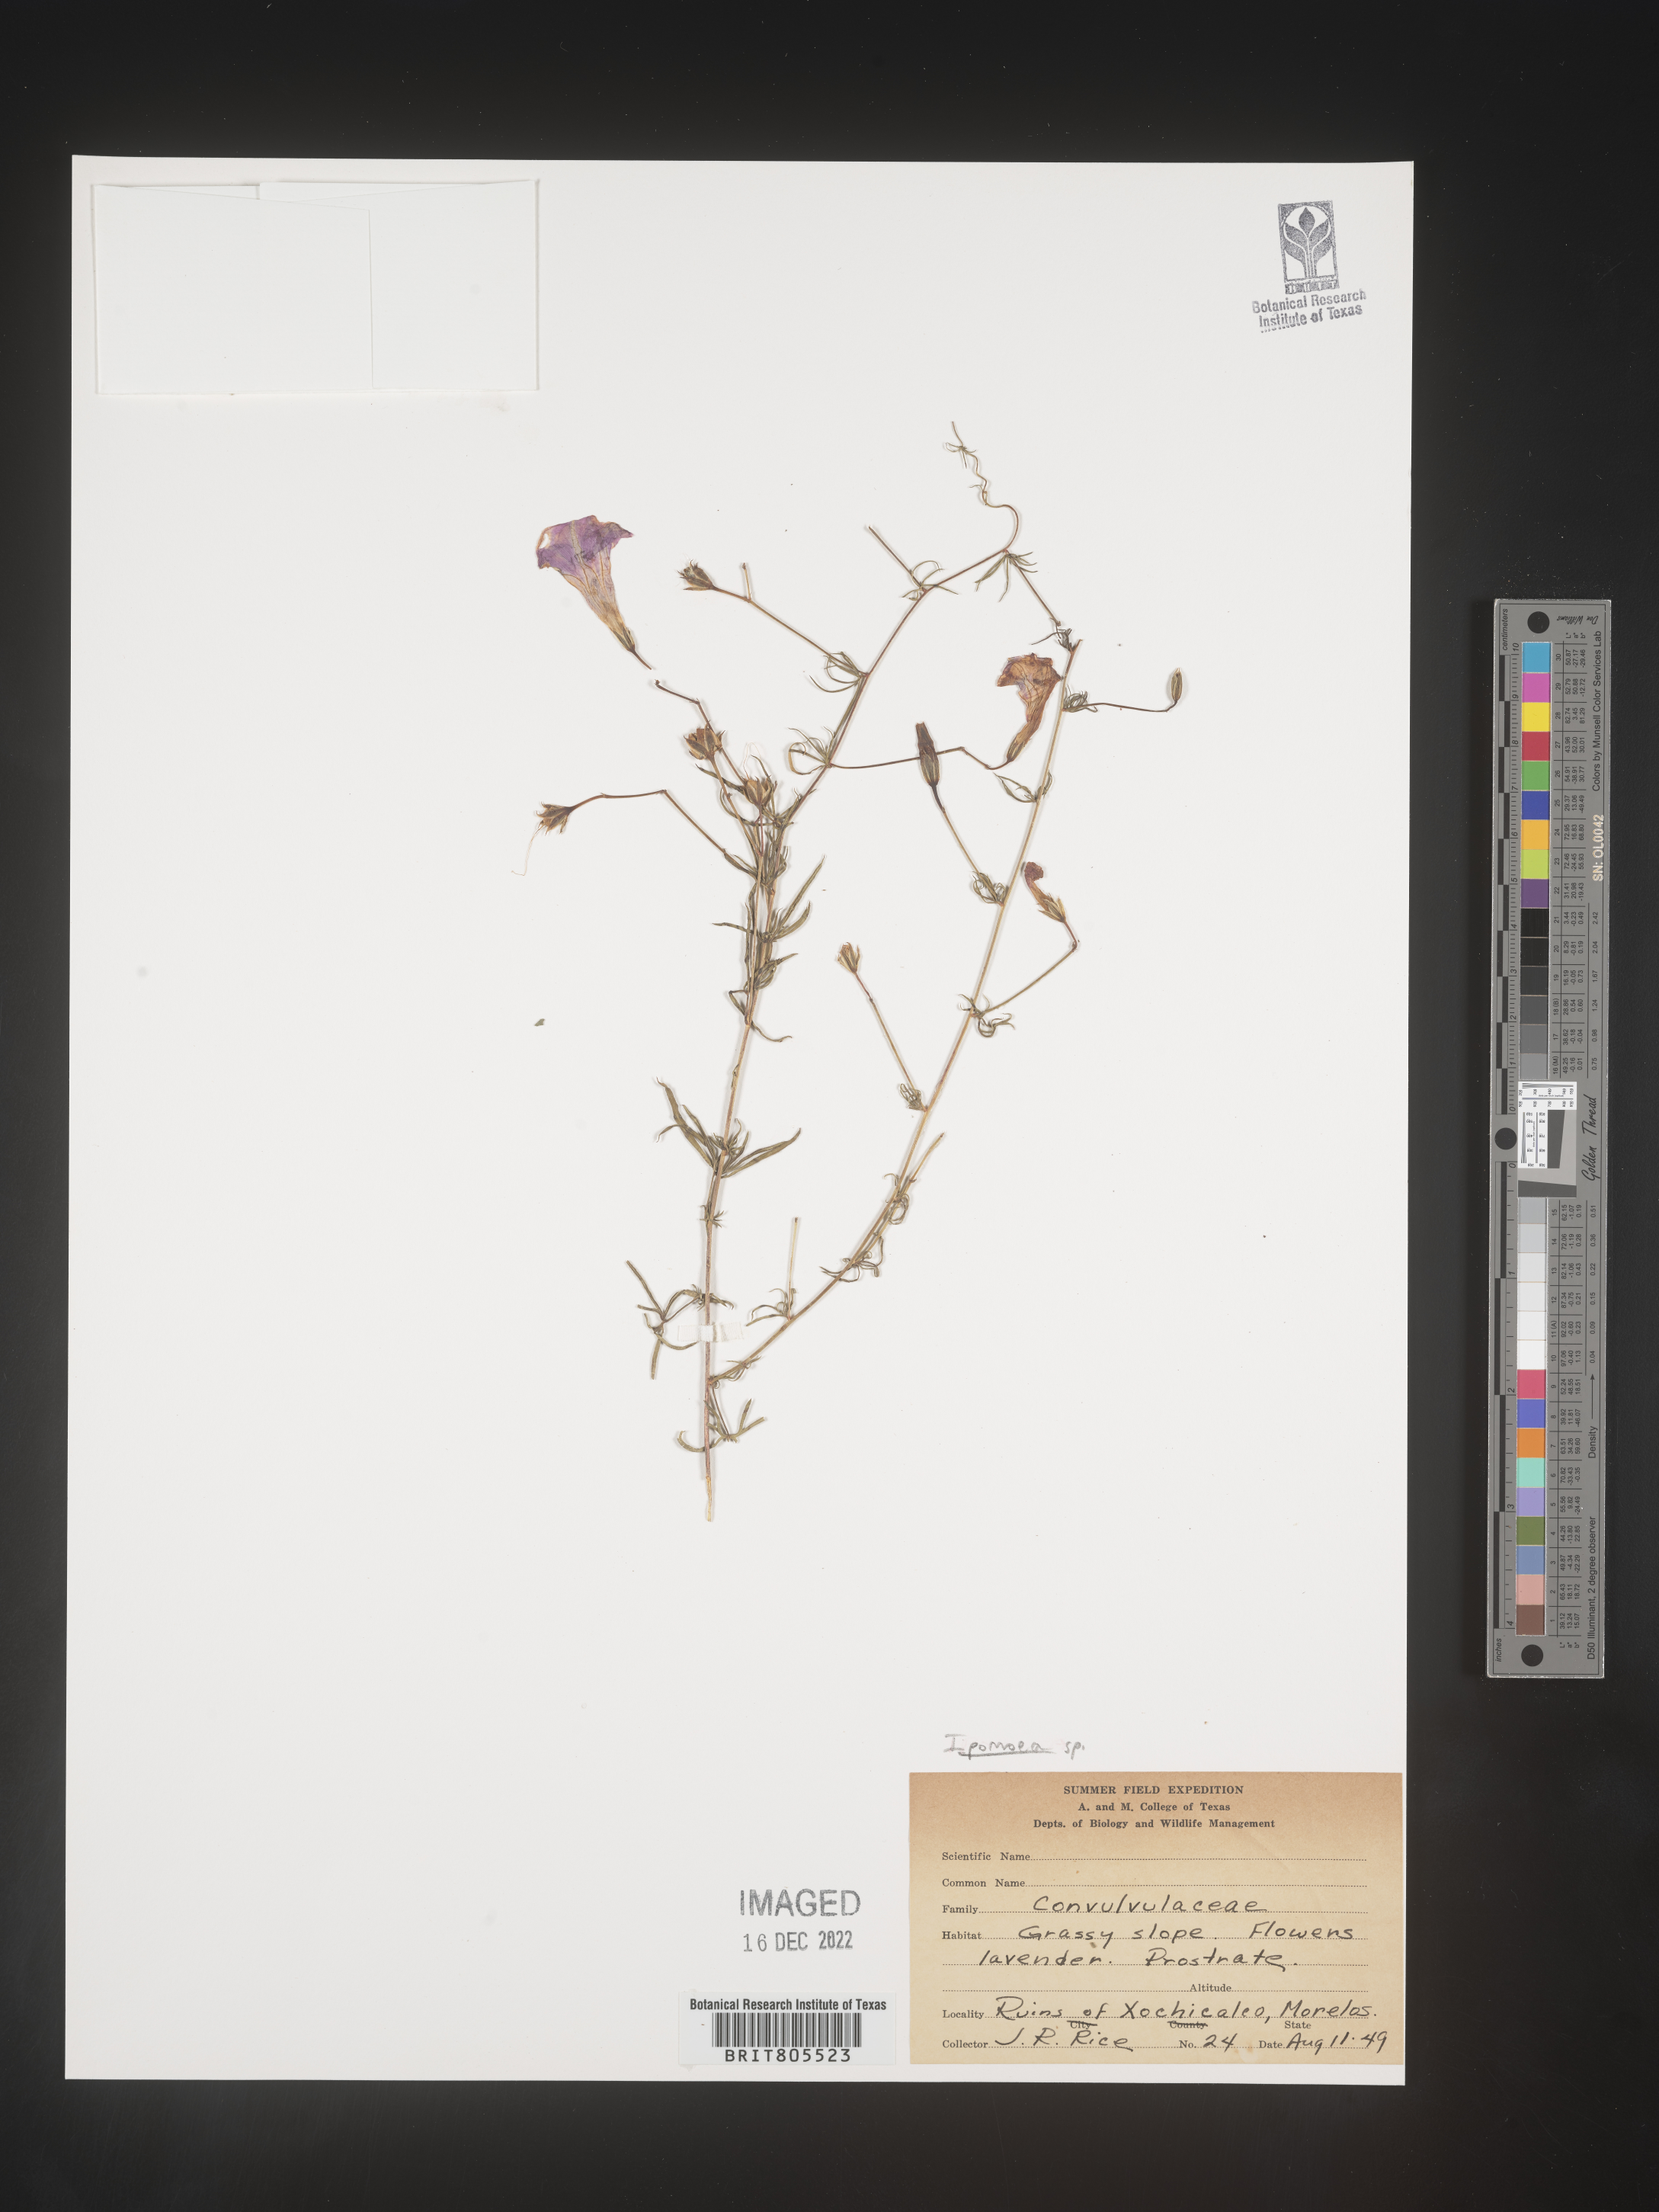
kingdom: Plantae
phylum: Tracheophyta
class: Magnoliopsida
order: Solanales
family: Convolvulaceae
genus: Ipomoea
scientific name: Ipomoea
